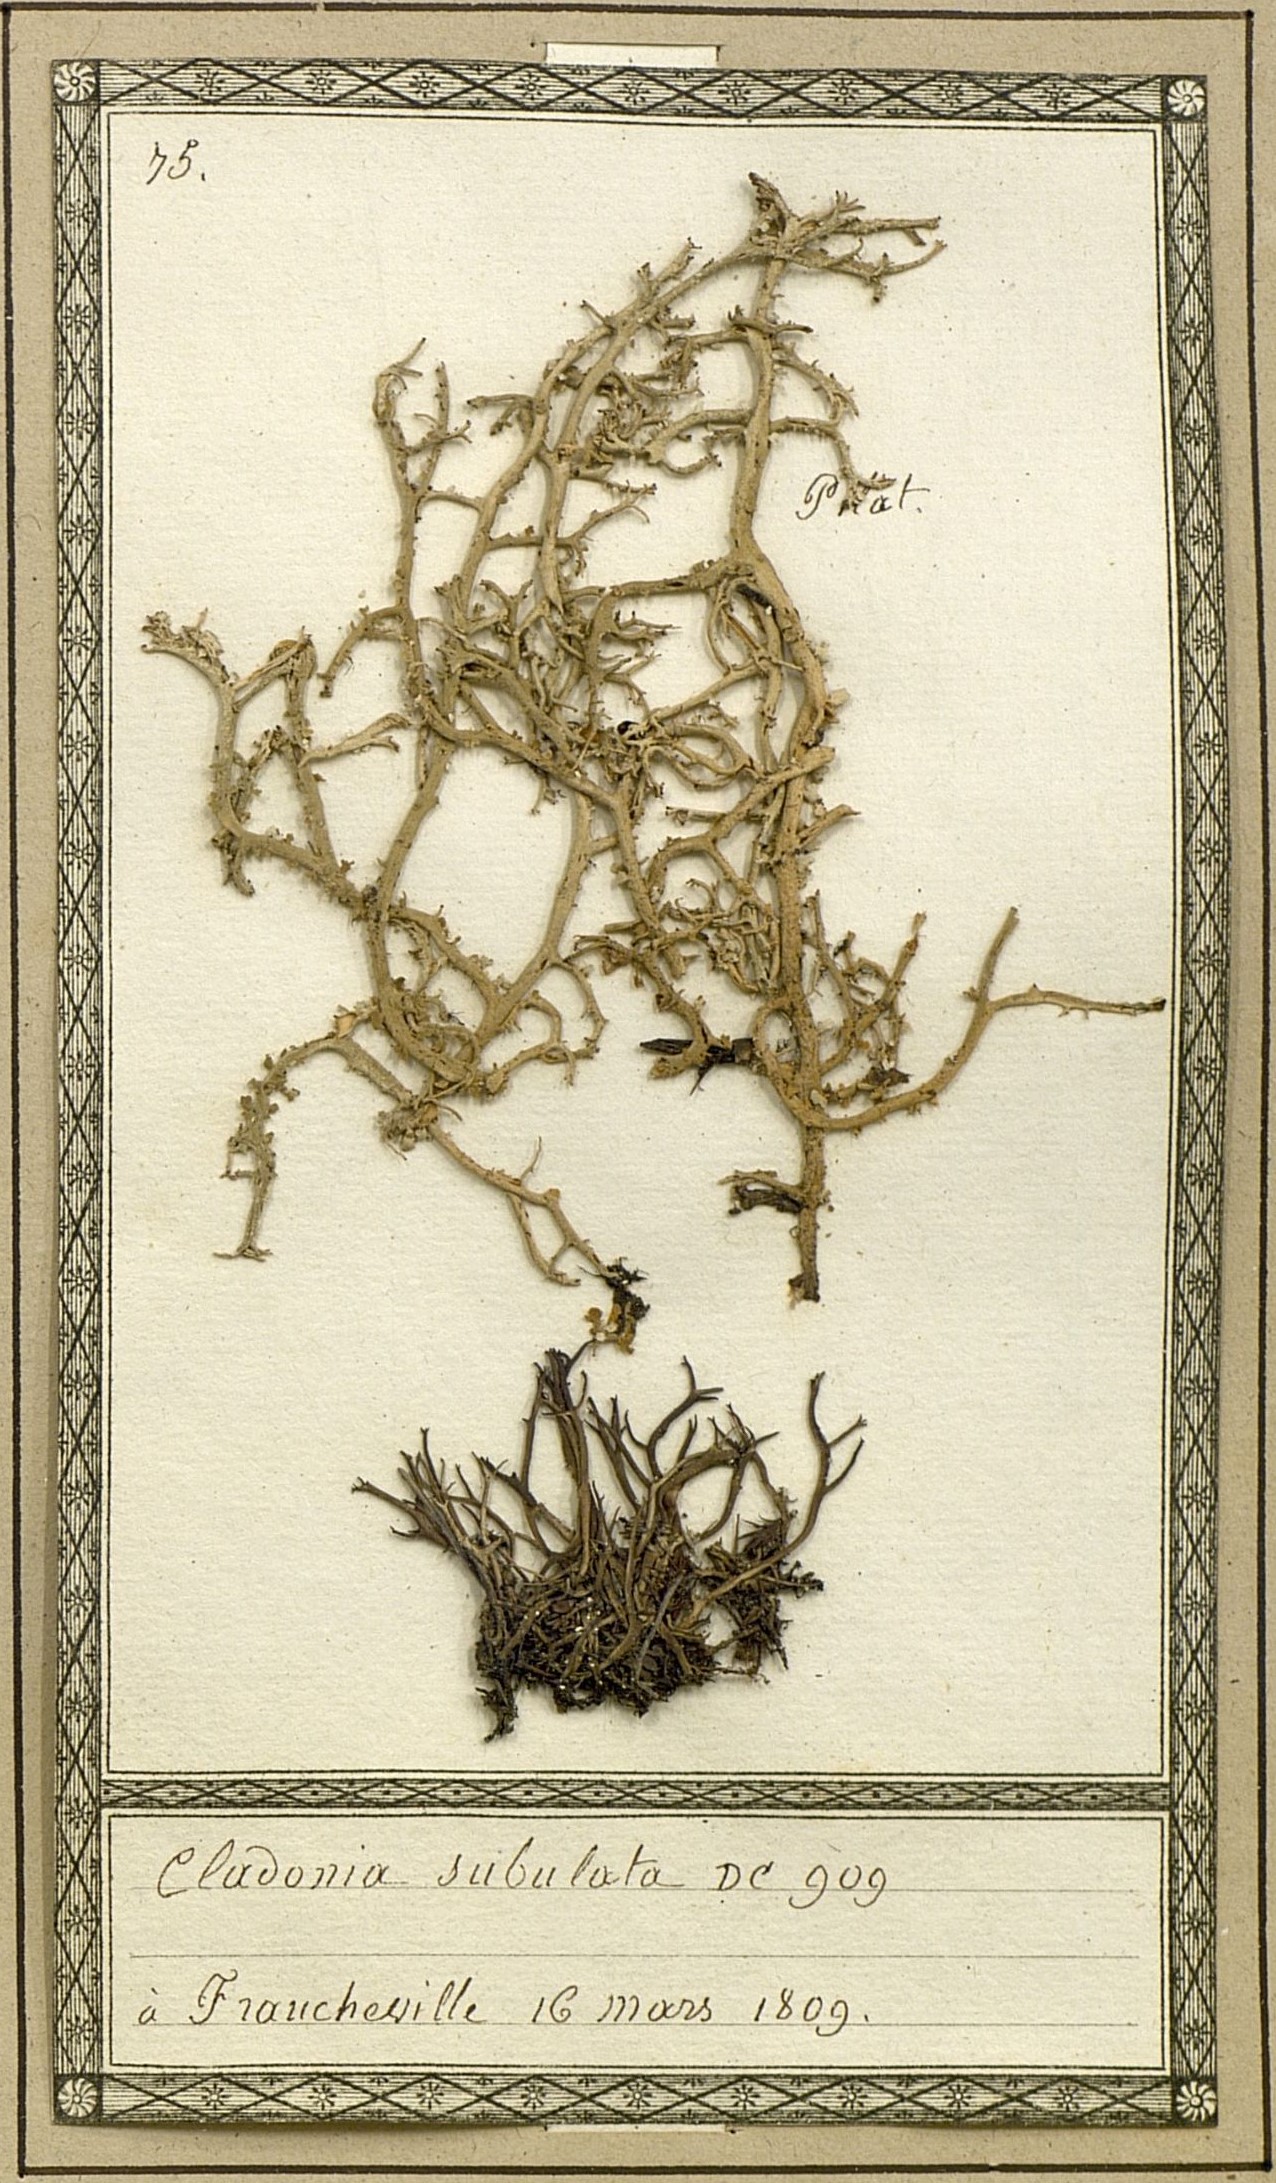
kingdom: Fungi
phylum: Ascomycota
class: Lecanoromycetes
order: Lecanorales
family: Cladoniaceae
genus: Cladonia
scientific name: Cladonia subulata
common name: Antlered powderhorn
